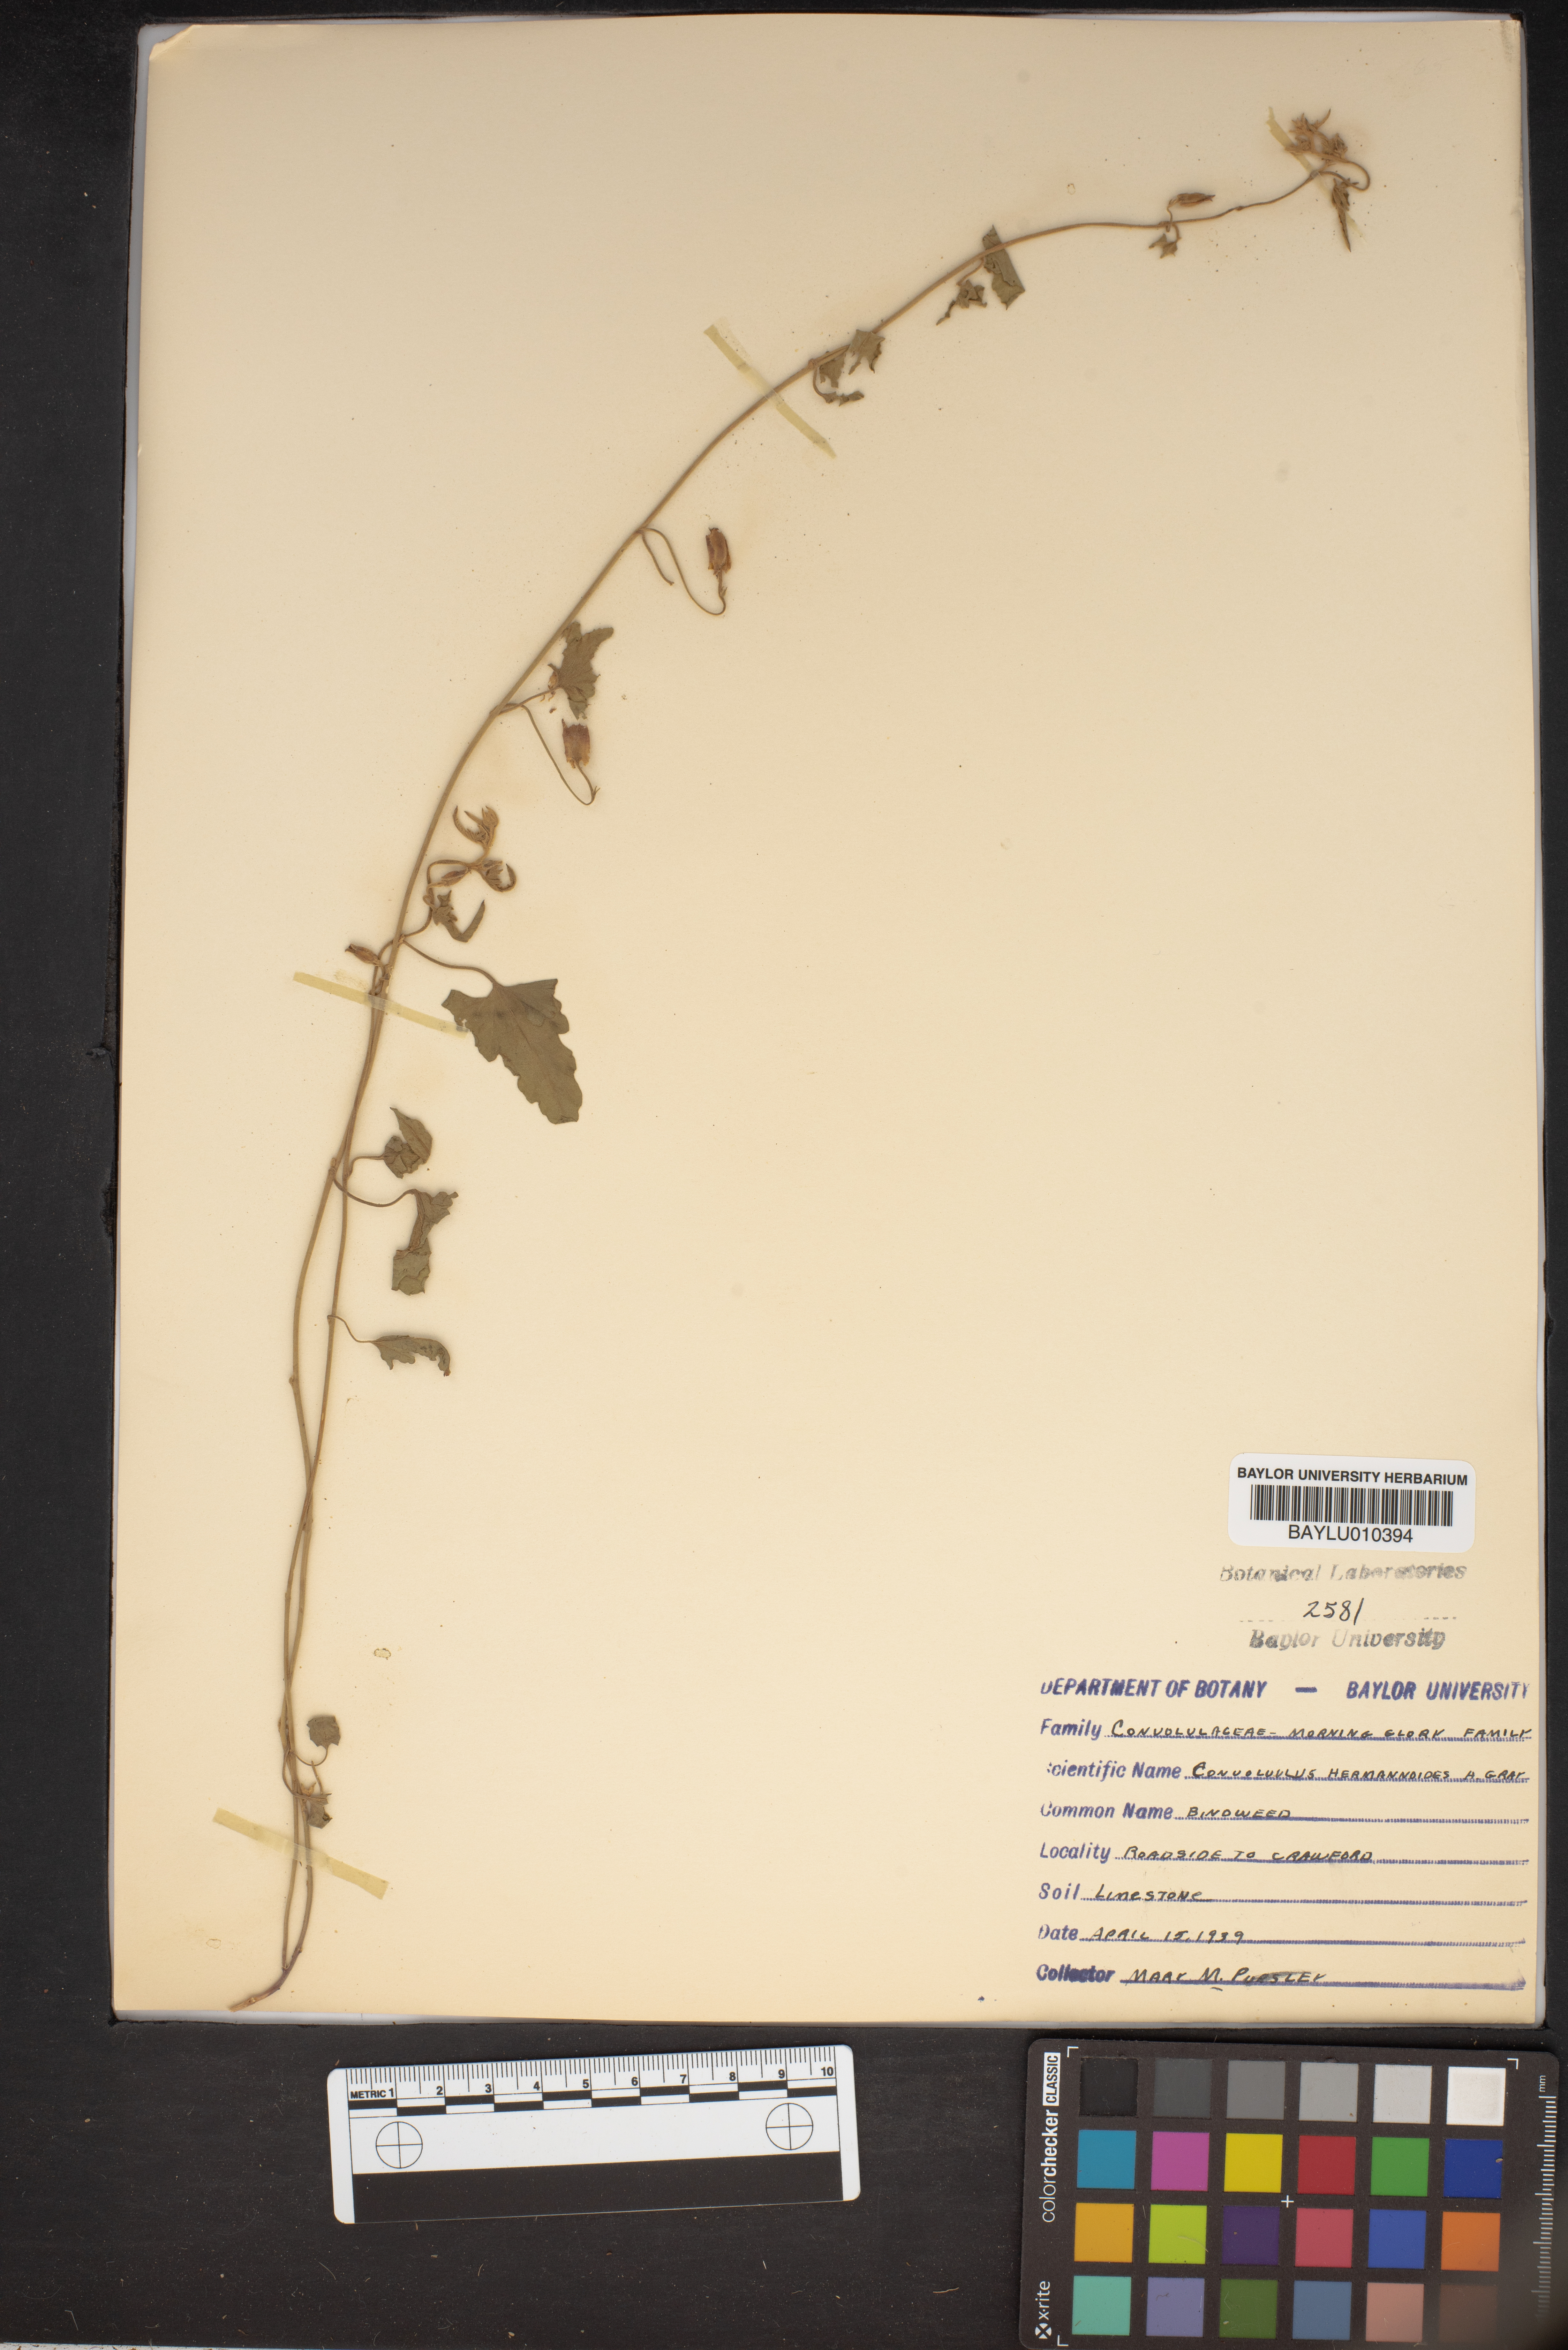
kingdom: Plantae
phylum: Tracheophyta
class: Magnoliopsida
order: Solanales
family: Convolvulaceae
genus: Convolvulus
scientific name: Convolvulus equitans
